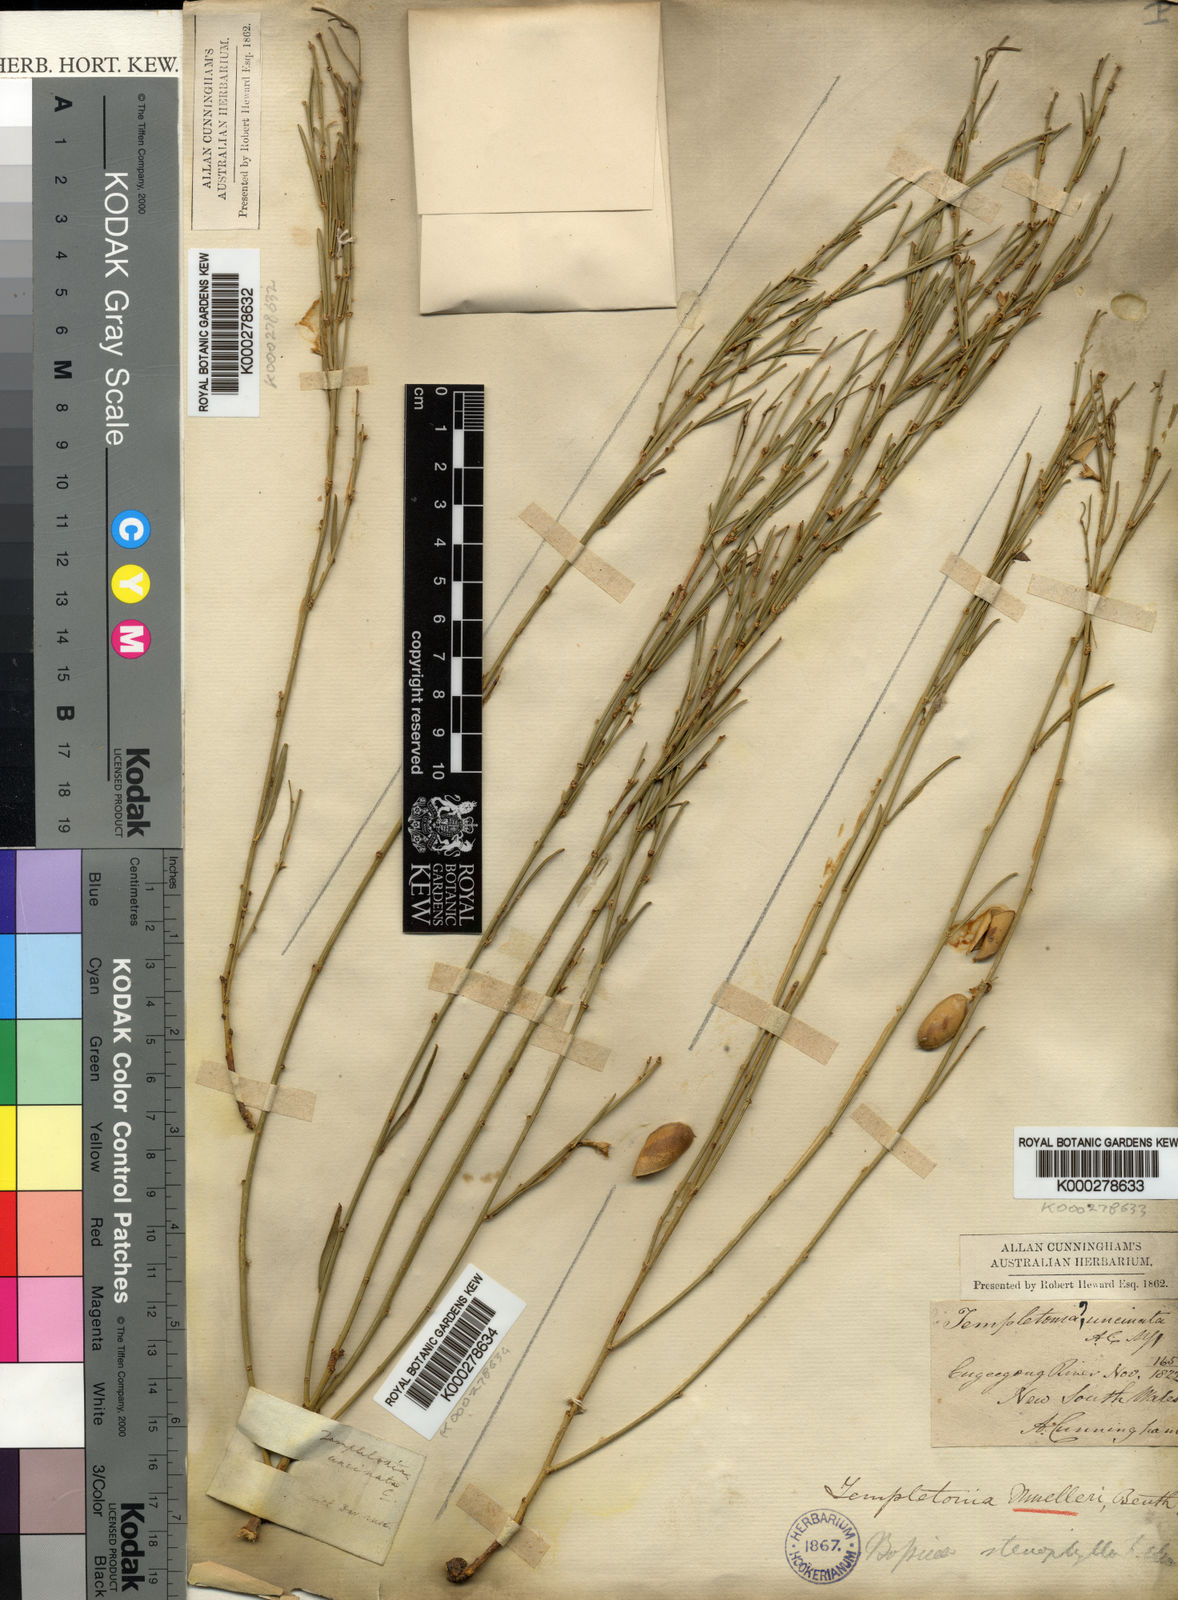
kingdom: Plantae
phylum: Tracheophyta
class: Magnoliopsida
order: Fabales
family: Fabaceae
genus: Templetonia
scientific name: Templetonia stenophylla
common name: Leafy templetonia
